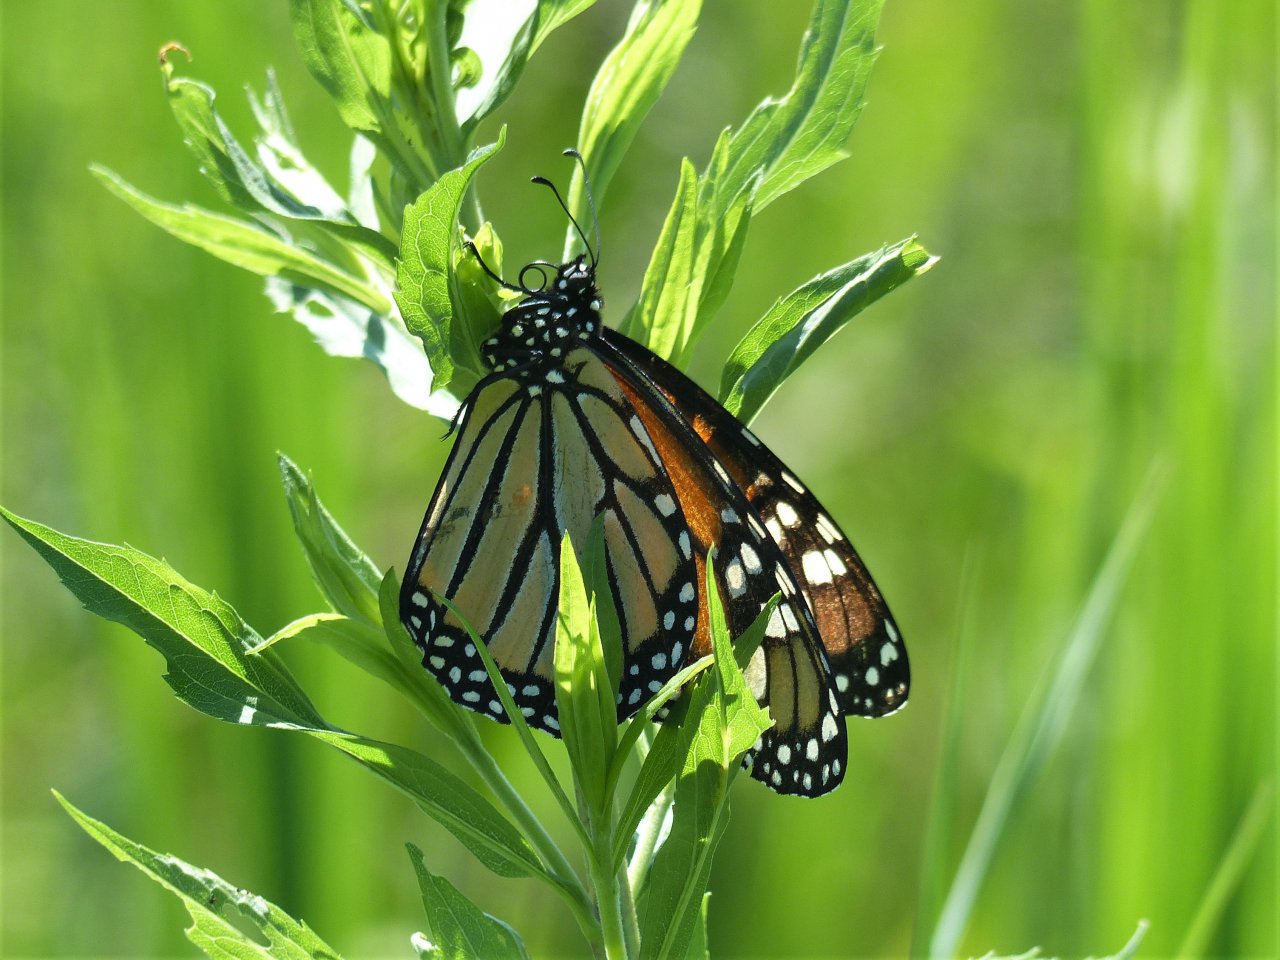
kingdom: Animalia
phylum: Arthropoda
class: Insecta
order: Lepidoptera
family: Nymphalidae
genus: Danaus
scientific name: Danaus plexippus
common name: Monarch
